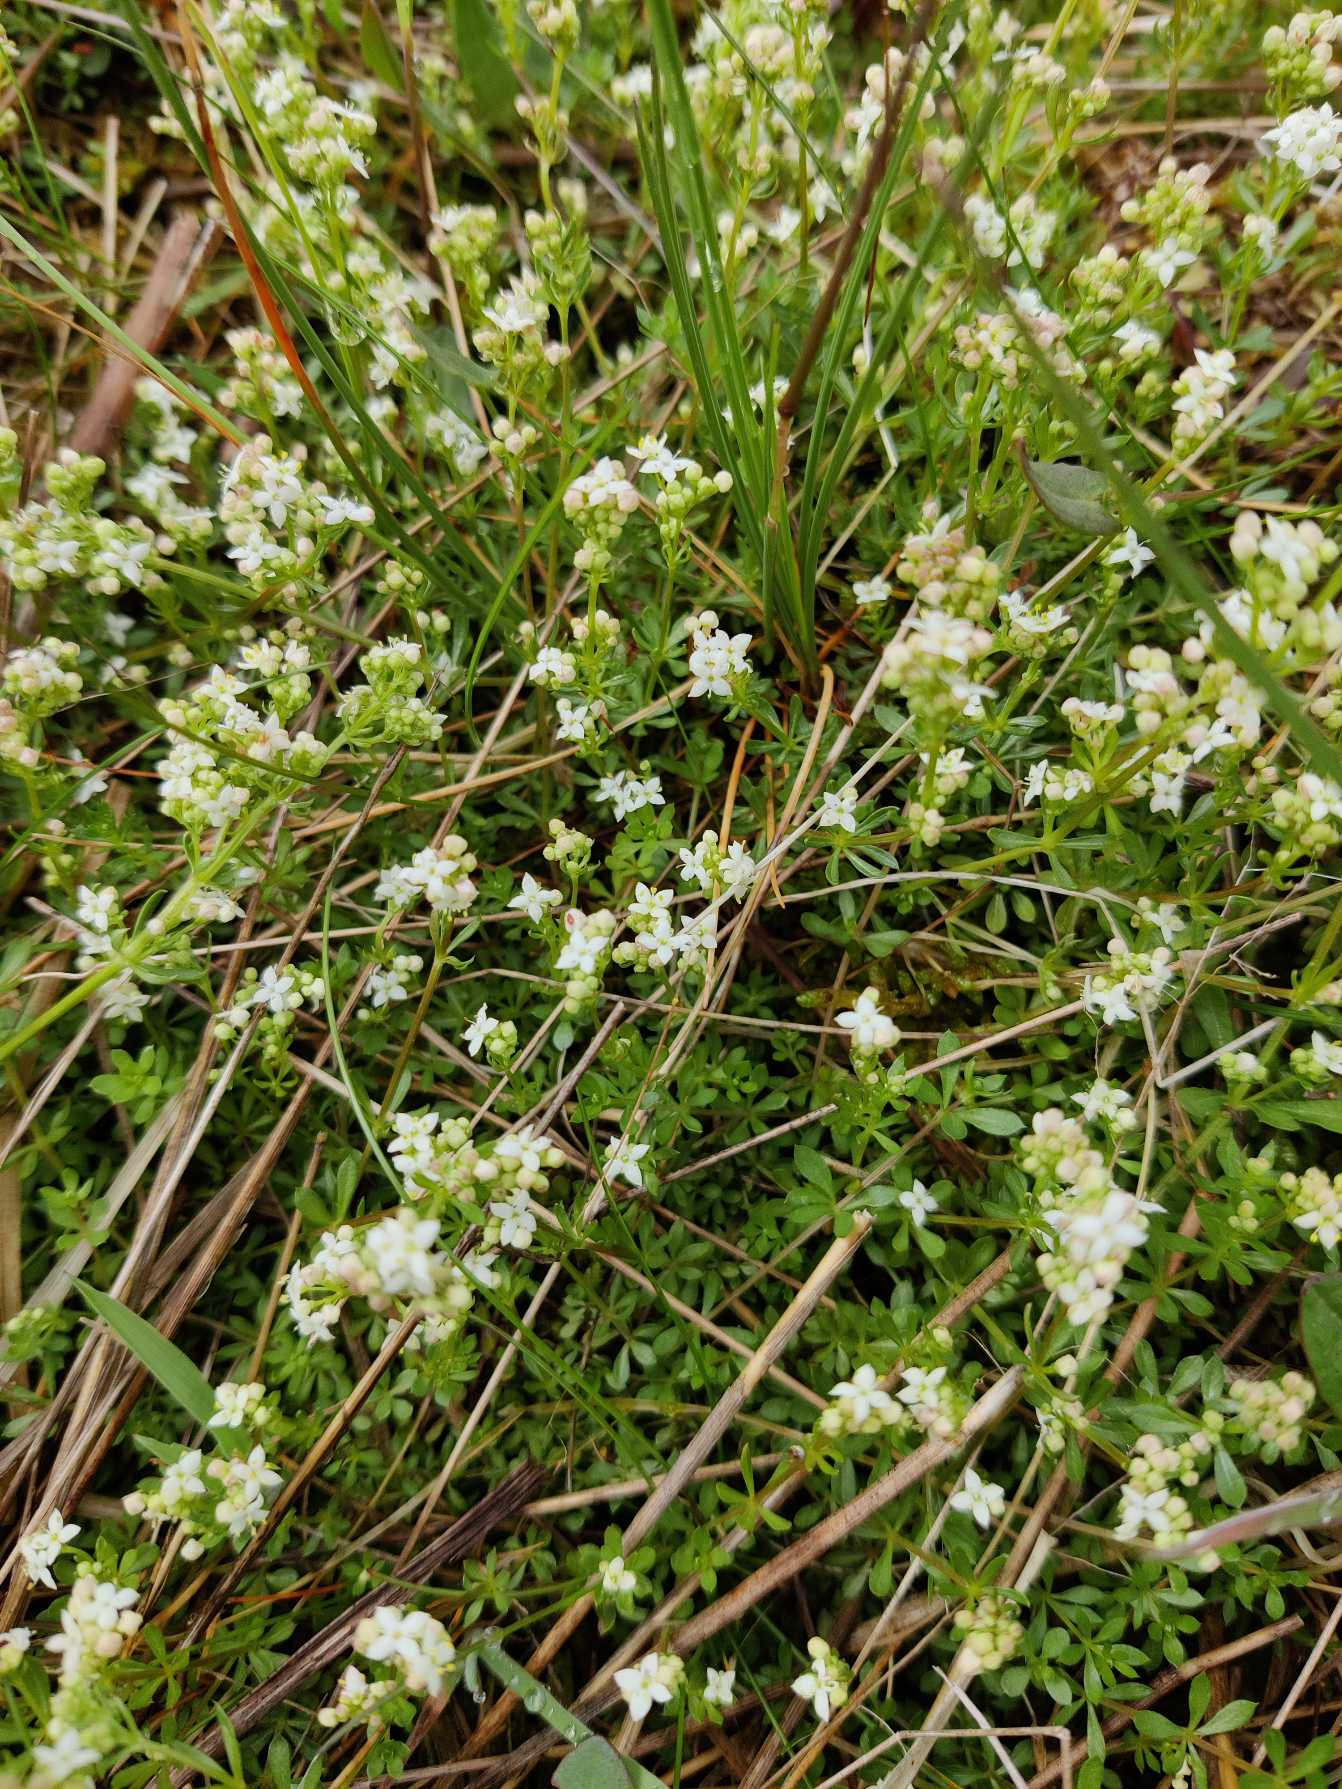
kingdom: Plantae
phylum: Tracheophyta
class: Magnoliopsida
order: Gentianales
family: Rubiaceae
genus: Galium
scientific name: Galium saxatile
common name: Lyng-snerre
